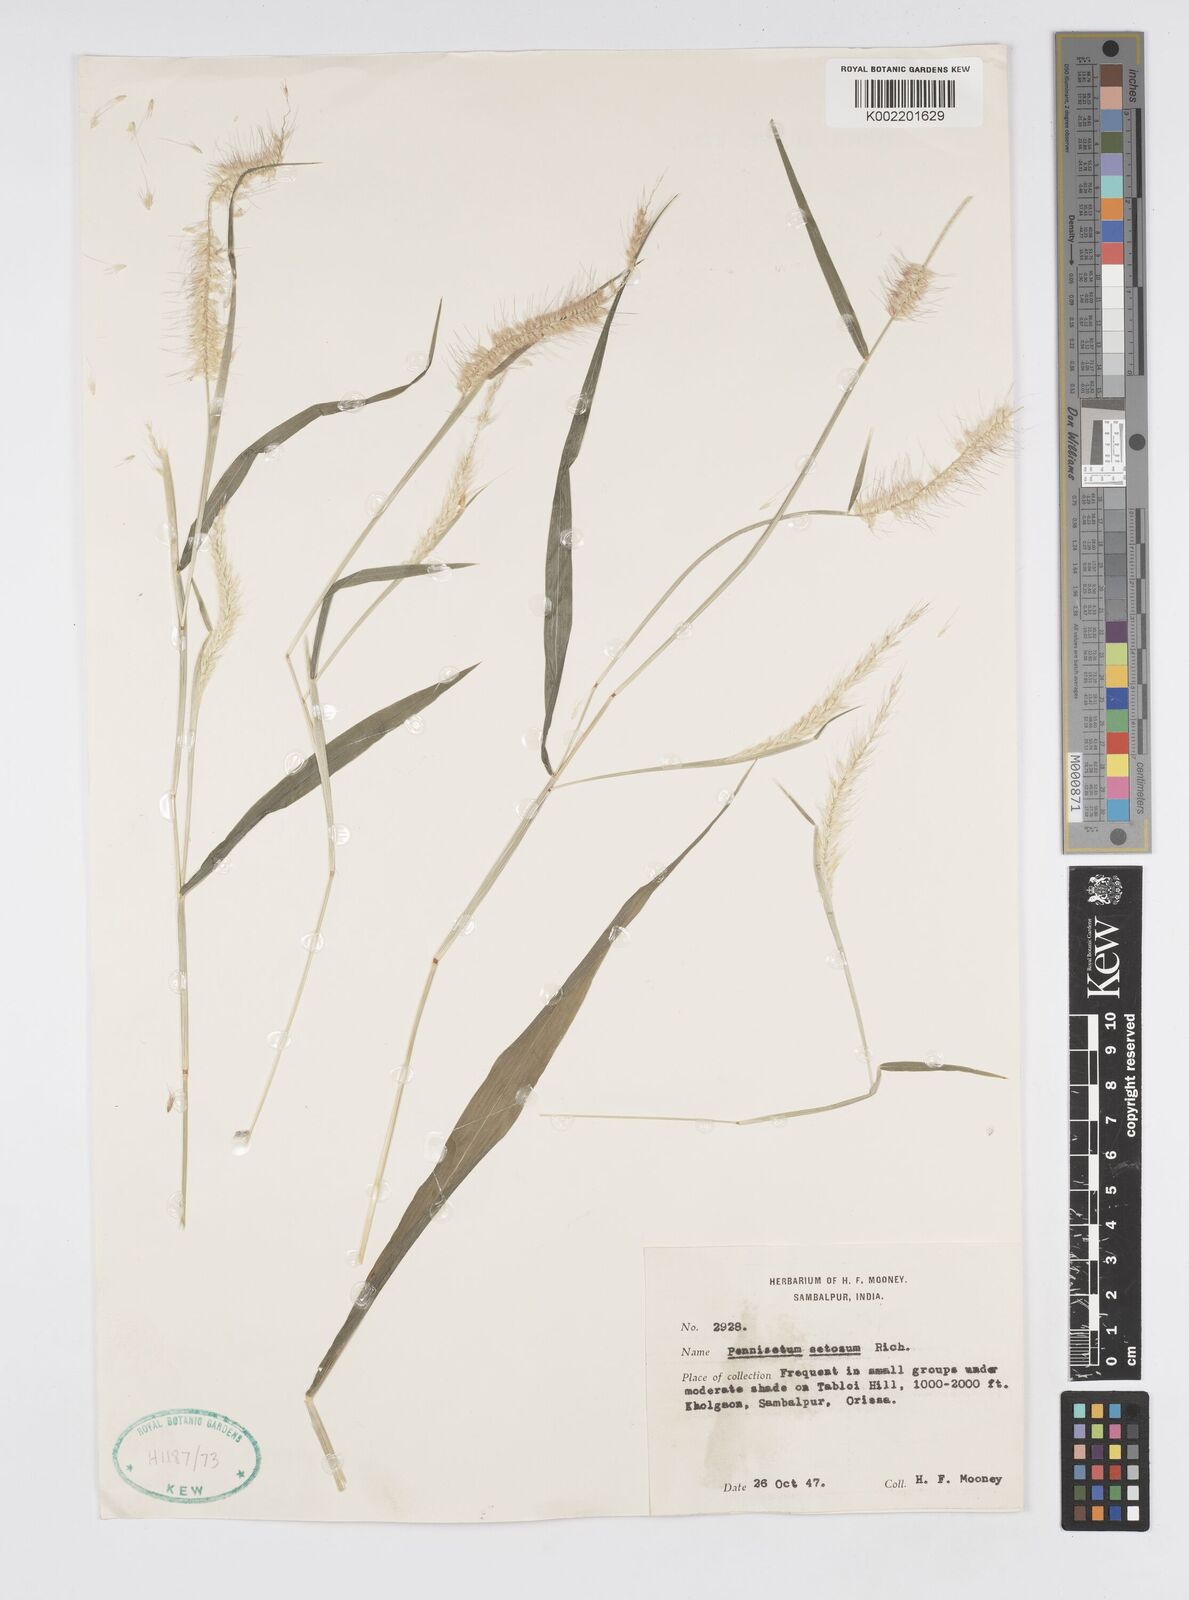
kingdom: Plantae
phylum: Tracheophyta
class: Liliopsida
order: Poales
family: Poaceae
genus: Setaria
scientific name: Setaria parviflora
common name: Knotroot bristle-grass
